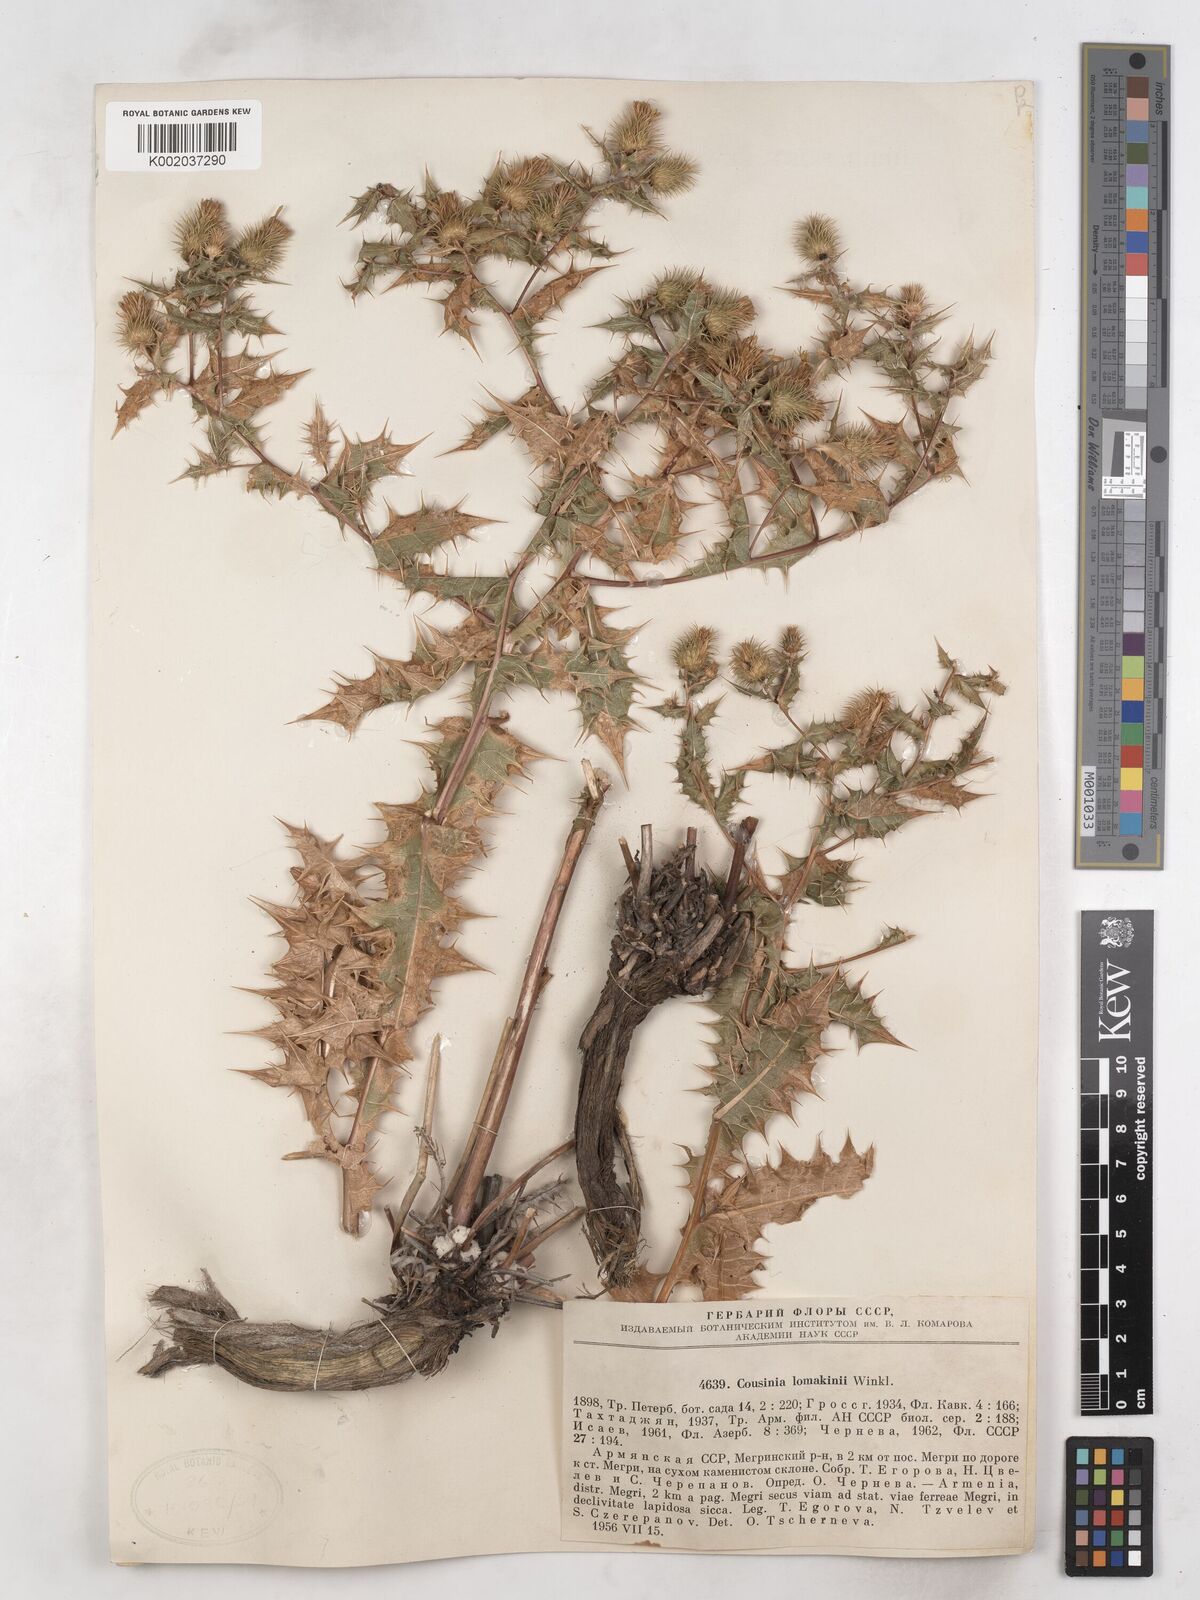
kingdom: Plantae
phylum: Tracheophyta
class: Magnoliopsida
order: Asterales
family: Asteraceae
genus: Cousinia
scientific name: Cousinia lamakini
